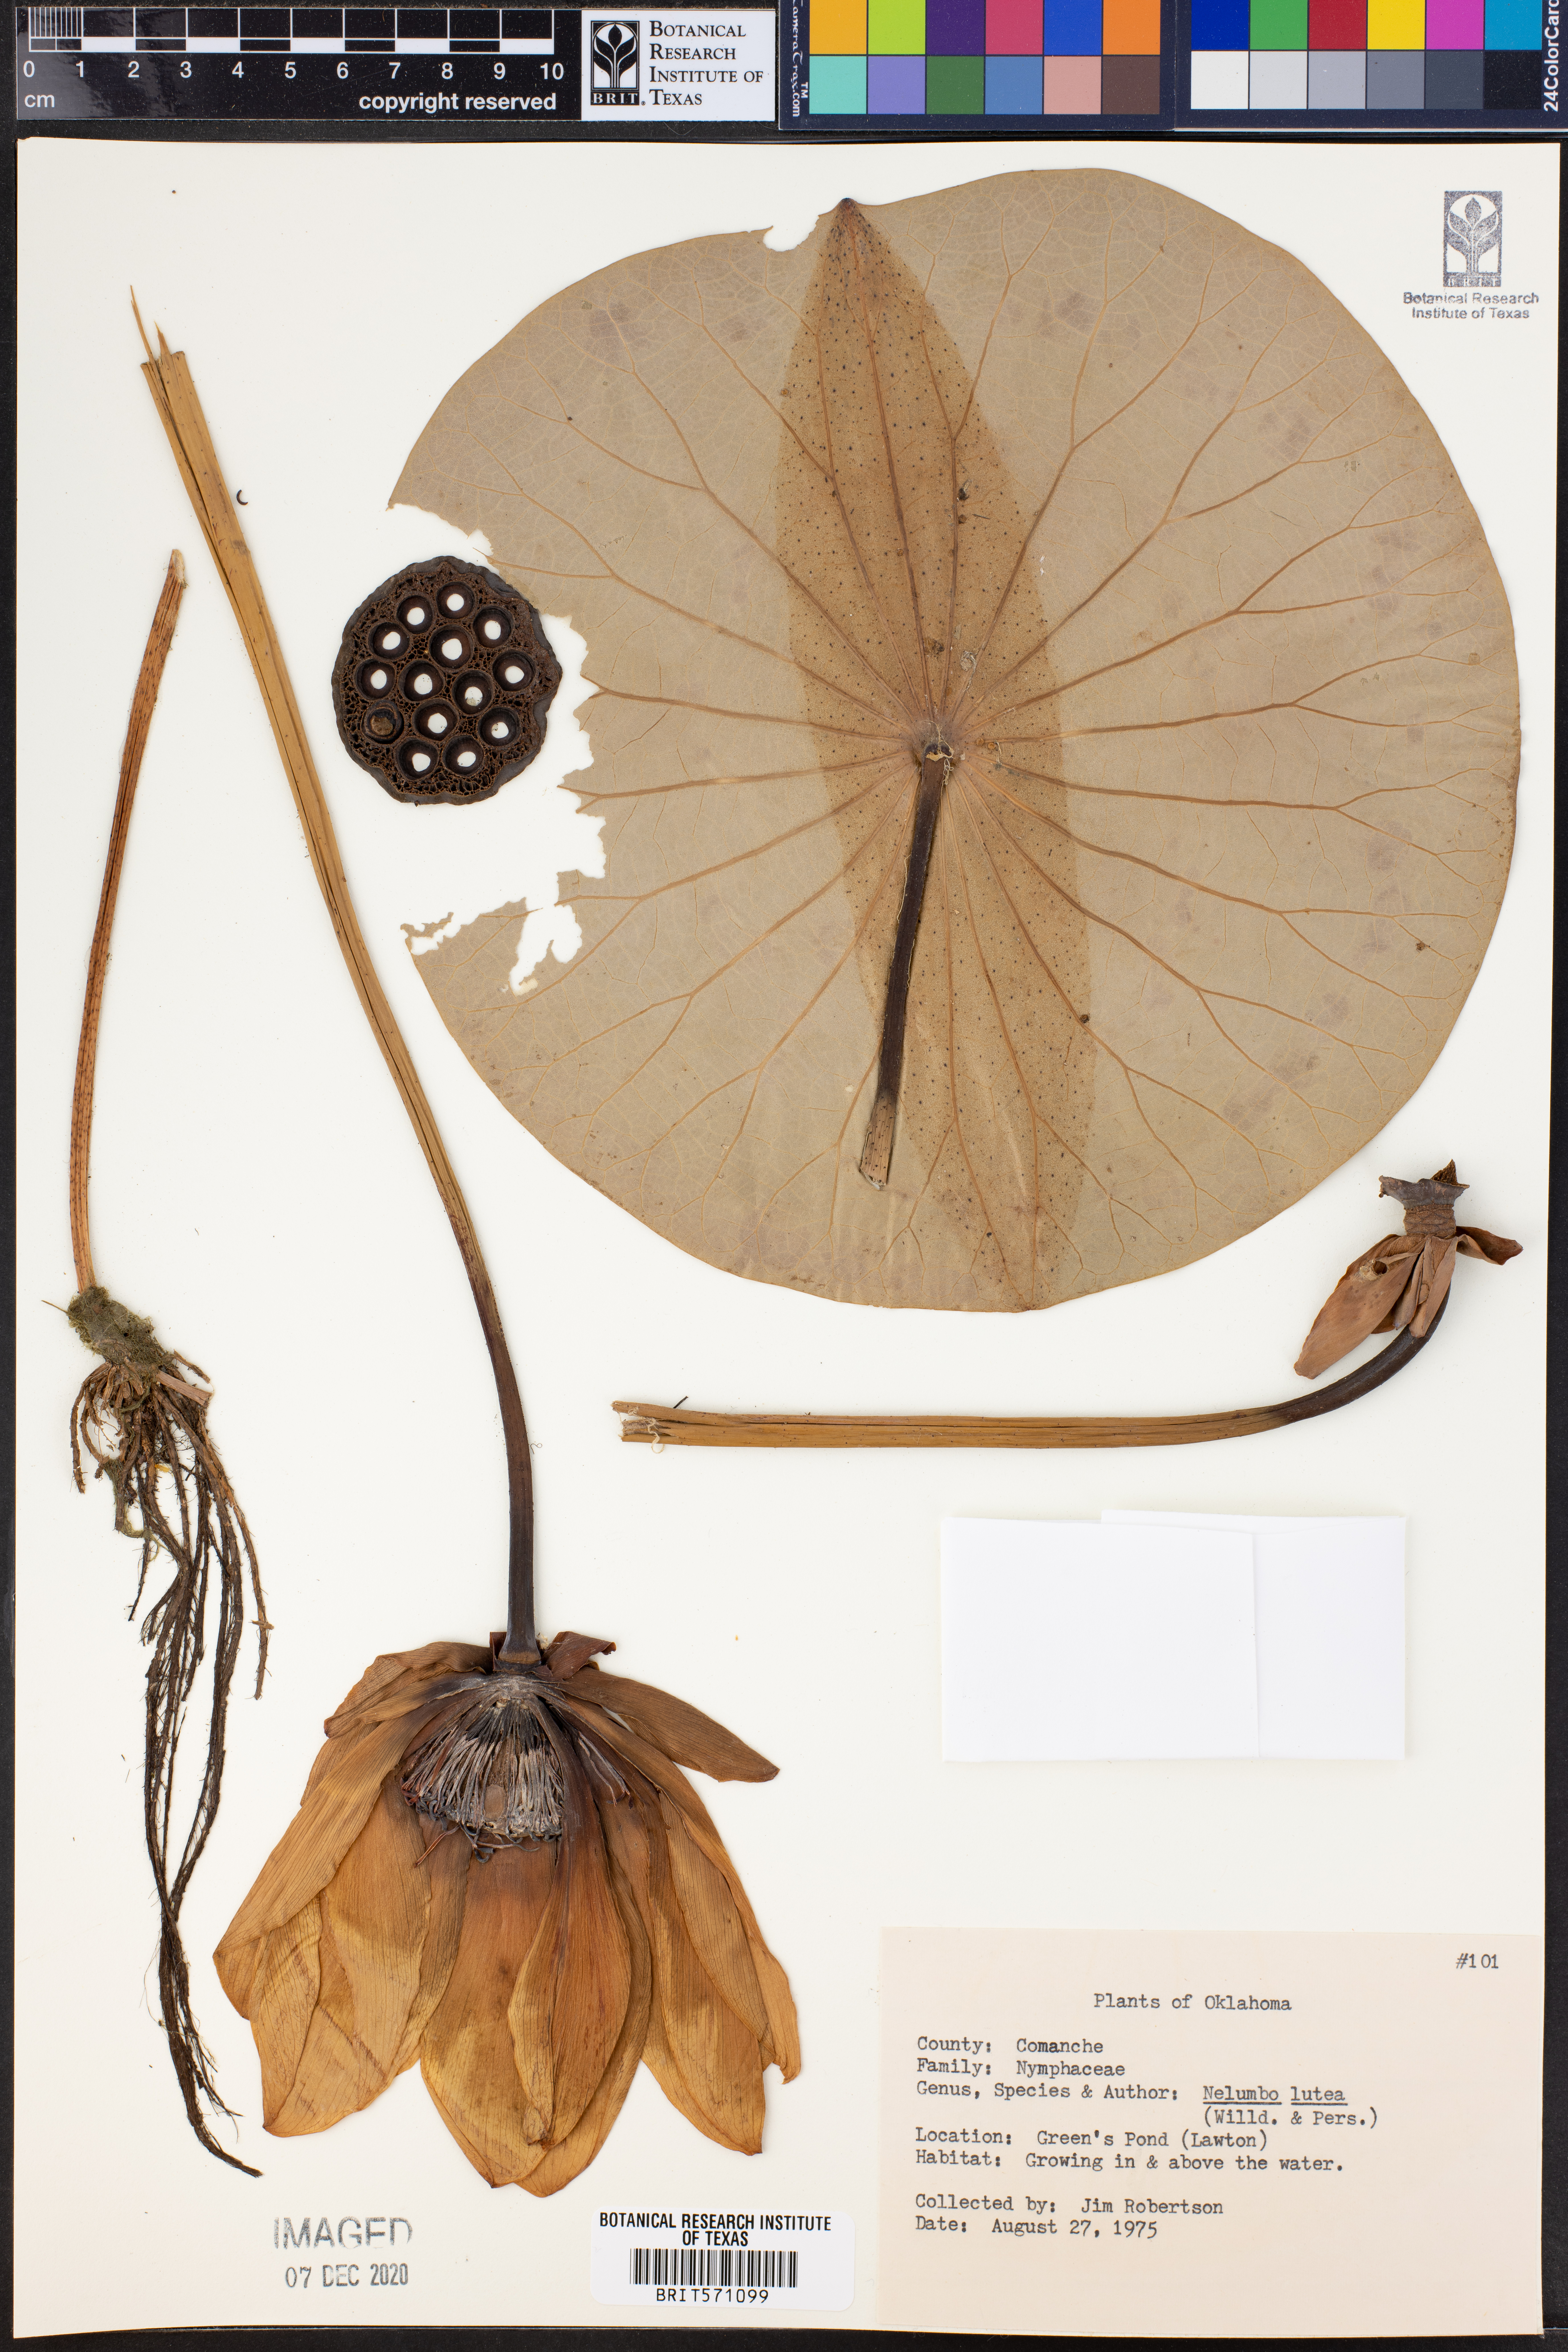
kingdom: Plantae
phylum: Tracheophyta
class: Magnoliopsida
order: Proteales
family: Nelumbonaceae
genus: Nelumbo
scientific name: Nelumbo lutea
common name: American lotus
